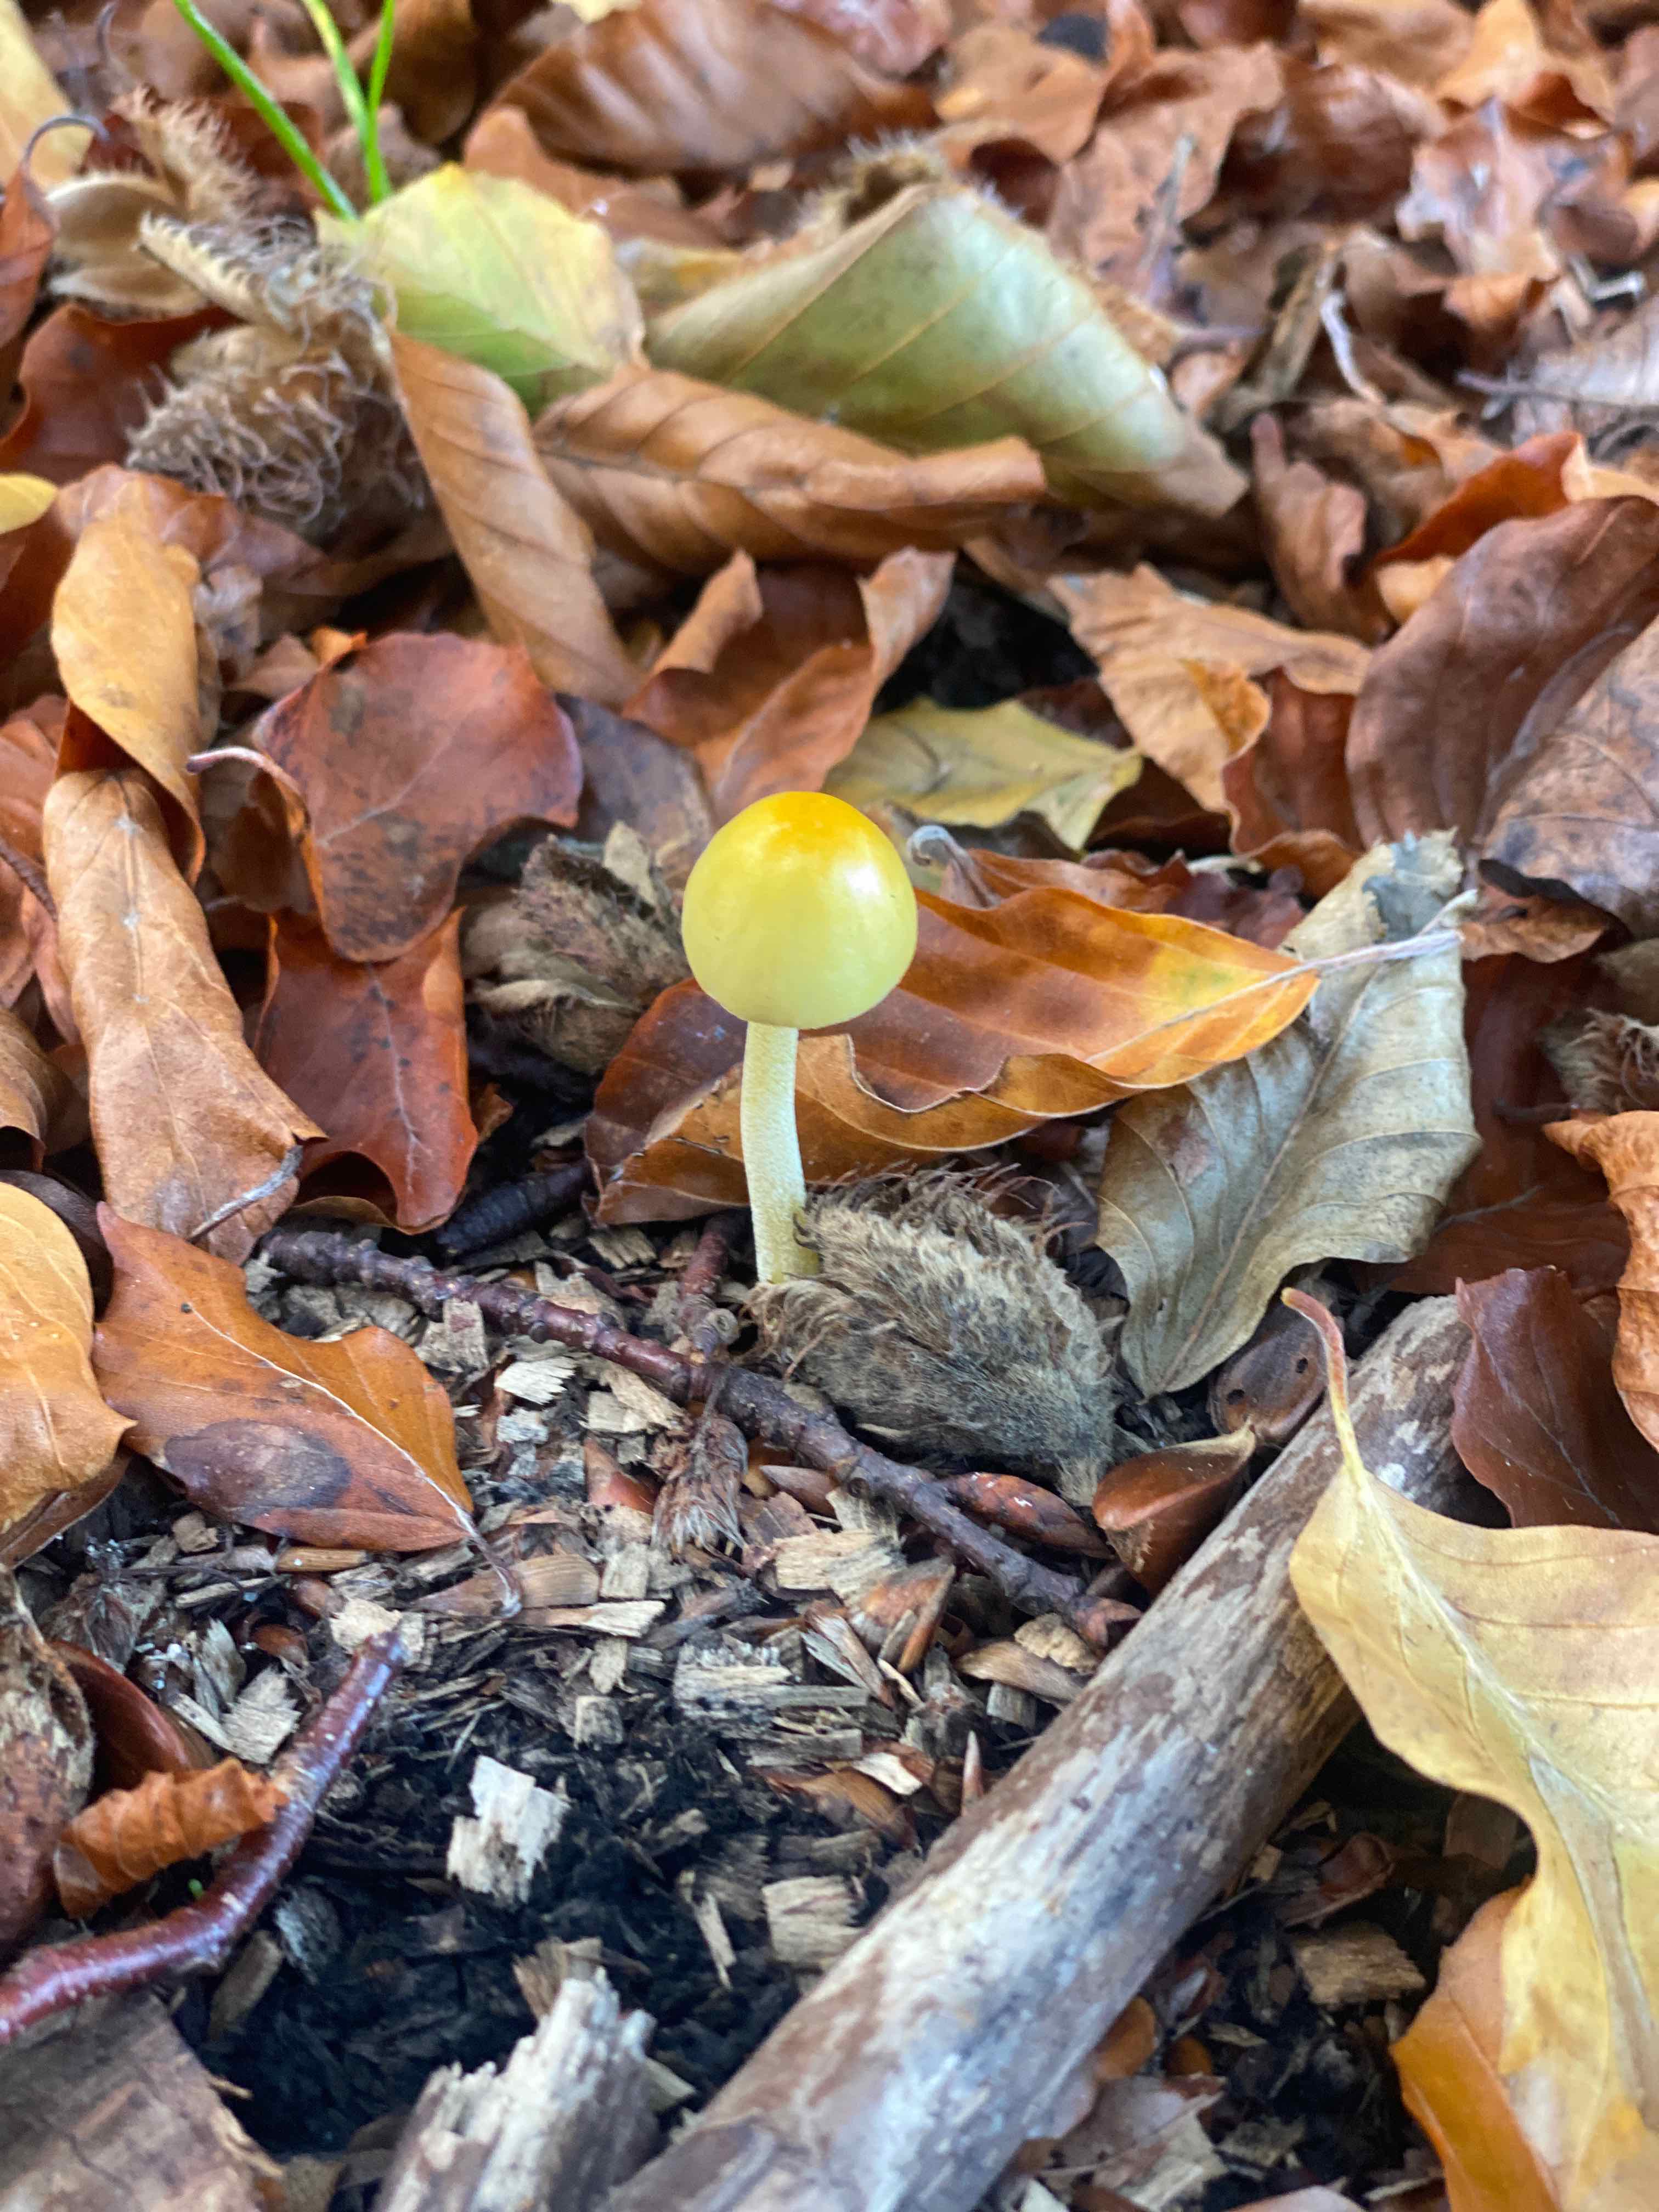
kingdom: Fungi
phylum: Basidiomycota
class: Agaricomycetes
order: Agaricales
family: Bolbitiaceae
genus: Bolbitius
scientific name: Bolbitius titubans
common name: almindelig gulhat
